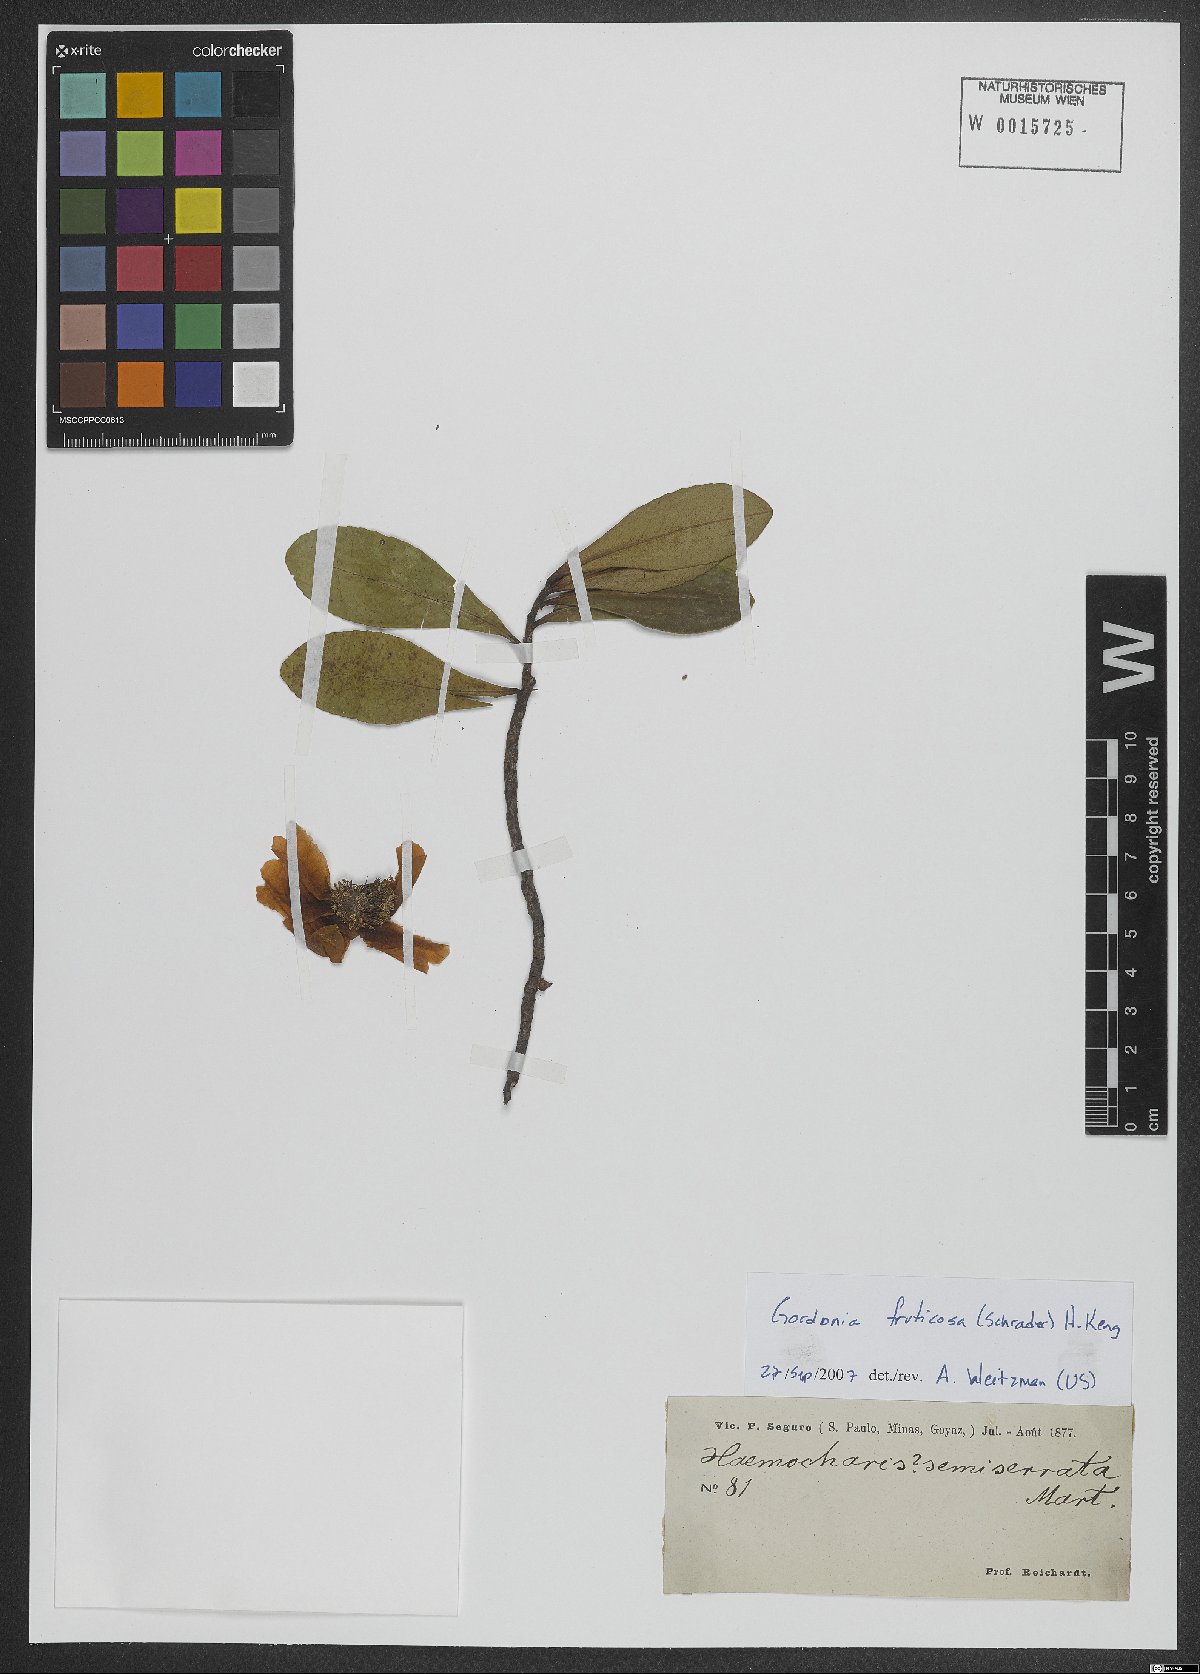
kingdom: Plantae
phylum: Tracheophyta
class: Magnoliopsida
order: Ericales
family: Theaceae
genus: Gordonia
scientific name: Gordonia fruticosa
